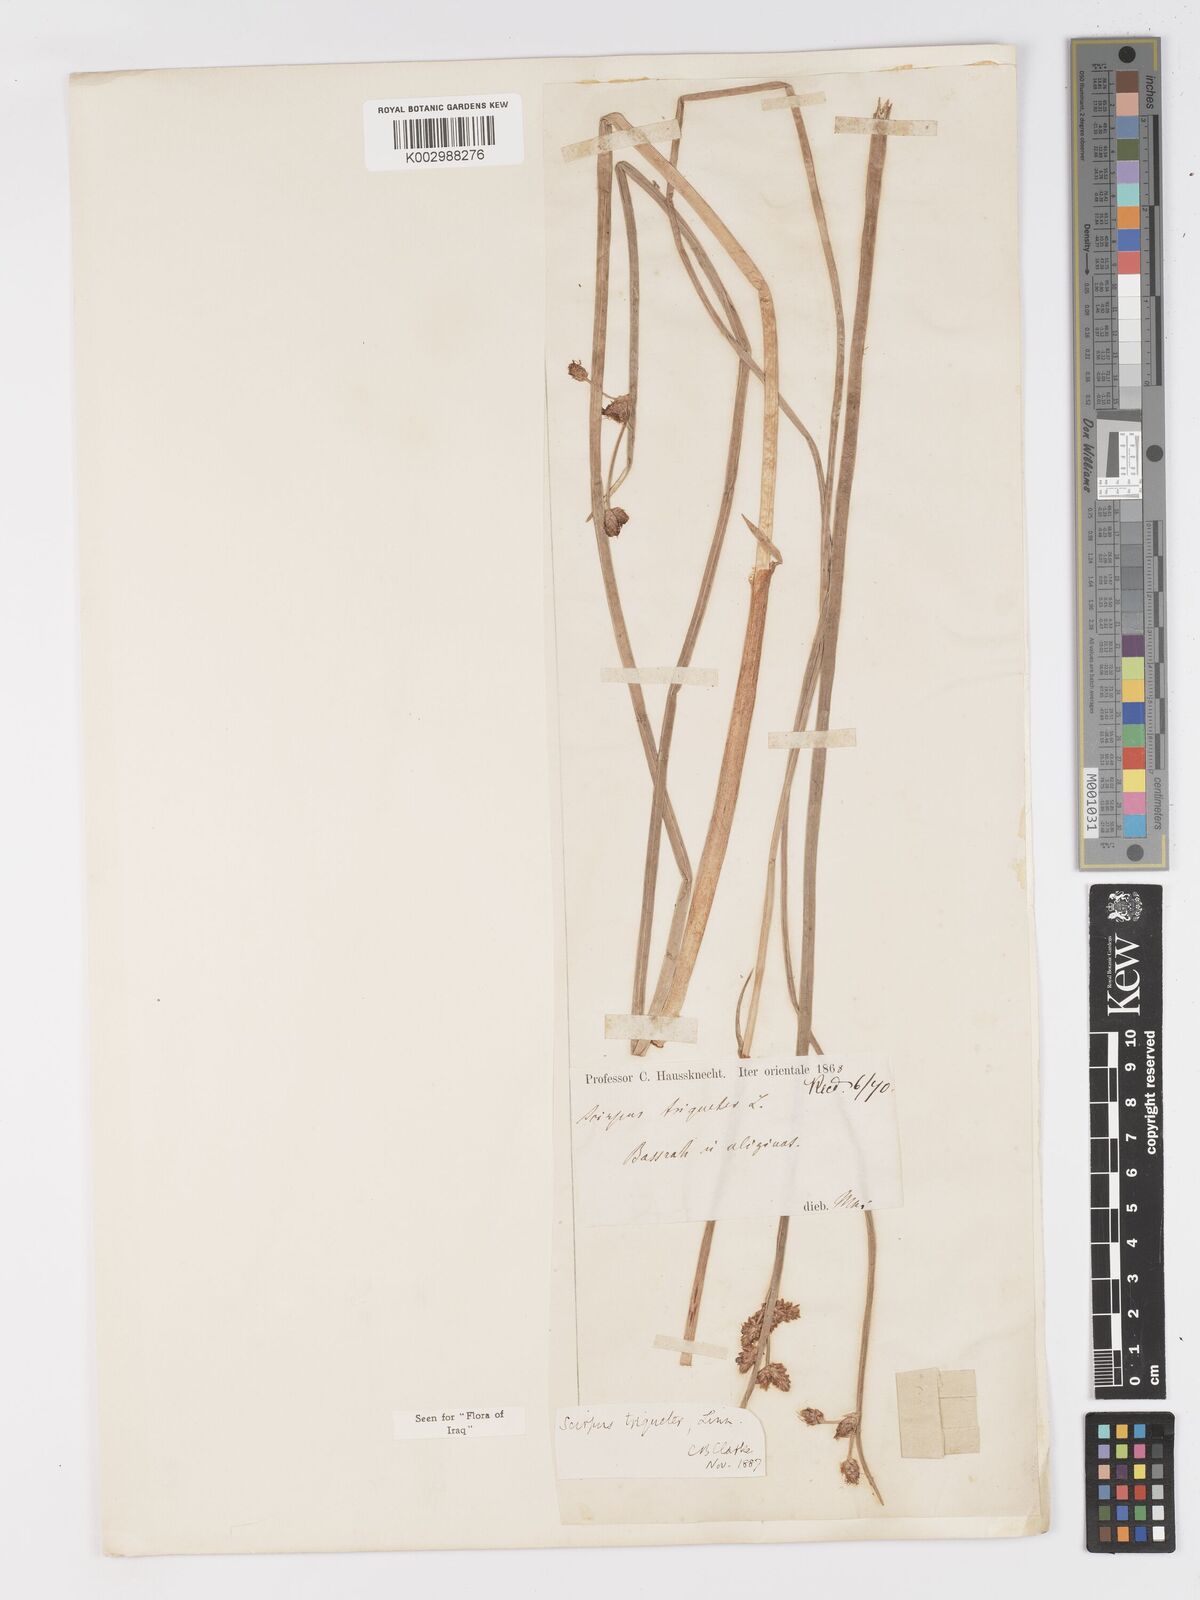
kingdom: Plantae
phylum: Tracheophyta
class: Liliopsida
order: Poales
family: Cyperaceae
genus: Schoenoplectus
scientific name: Schoenoplectus triqueter
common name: Triangular club-rush
